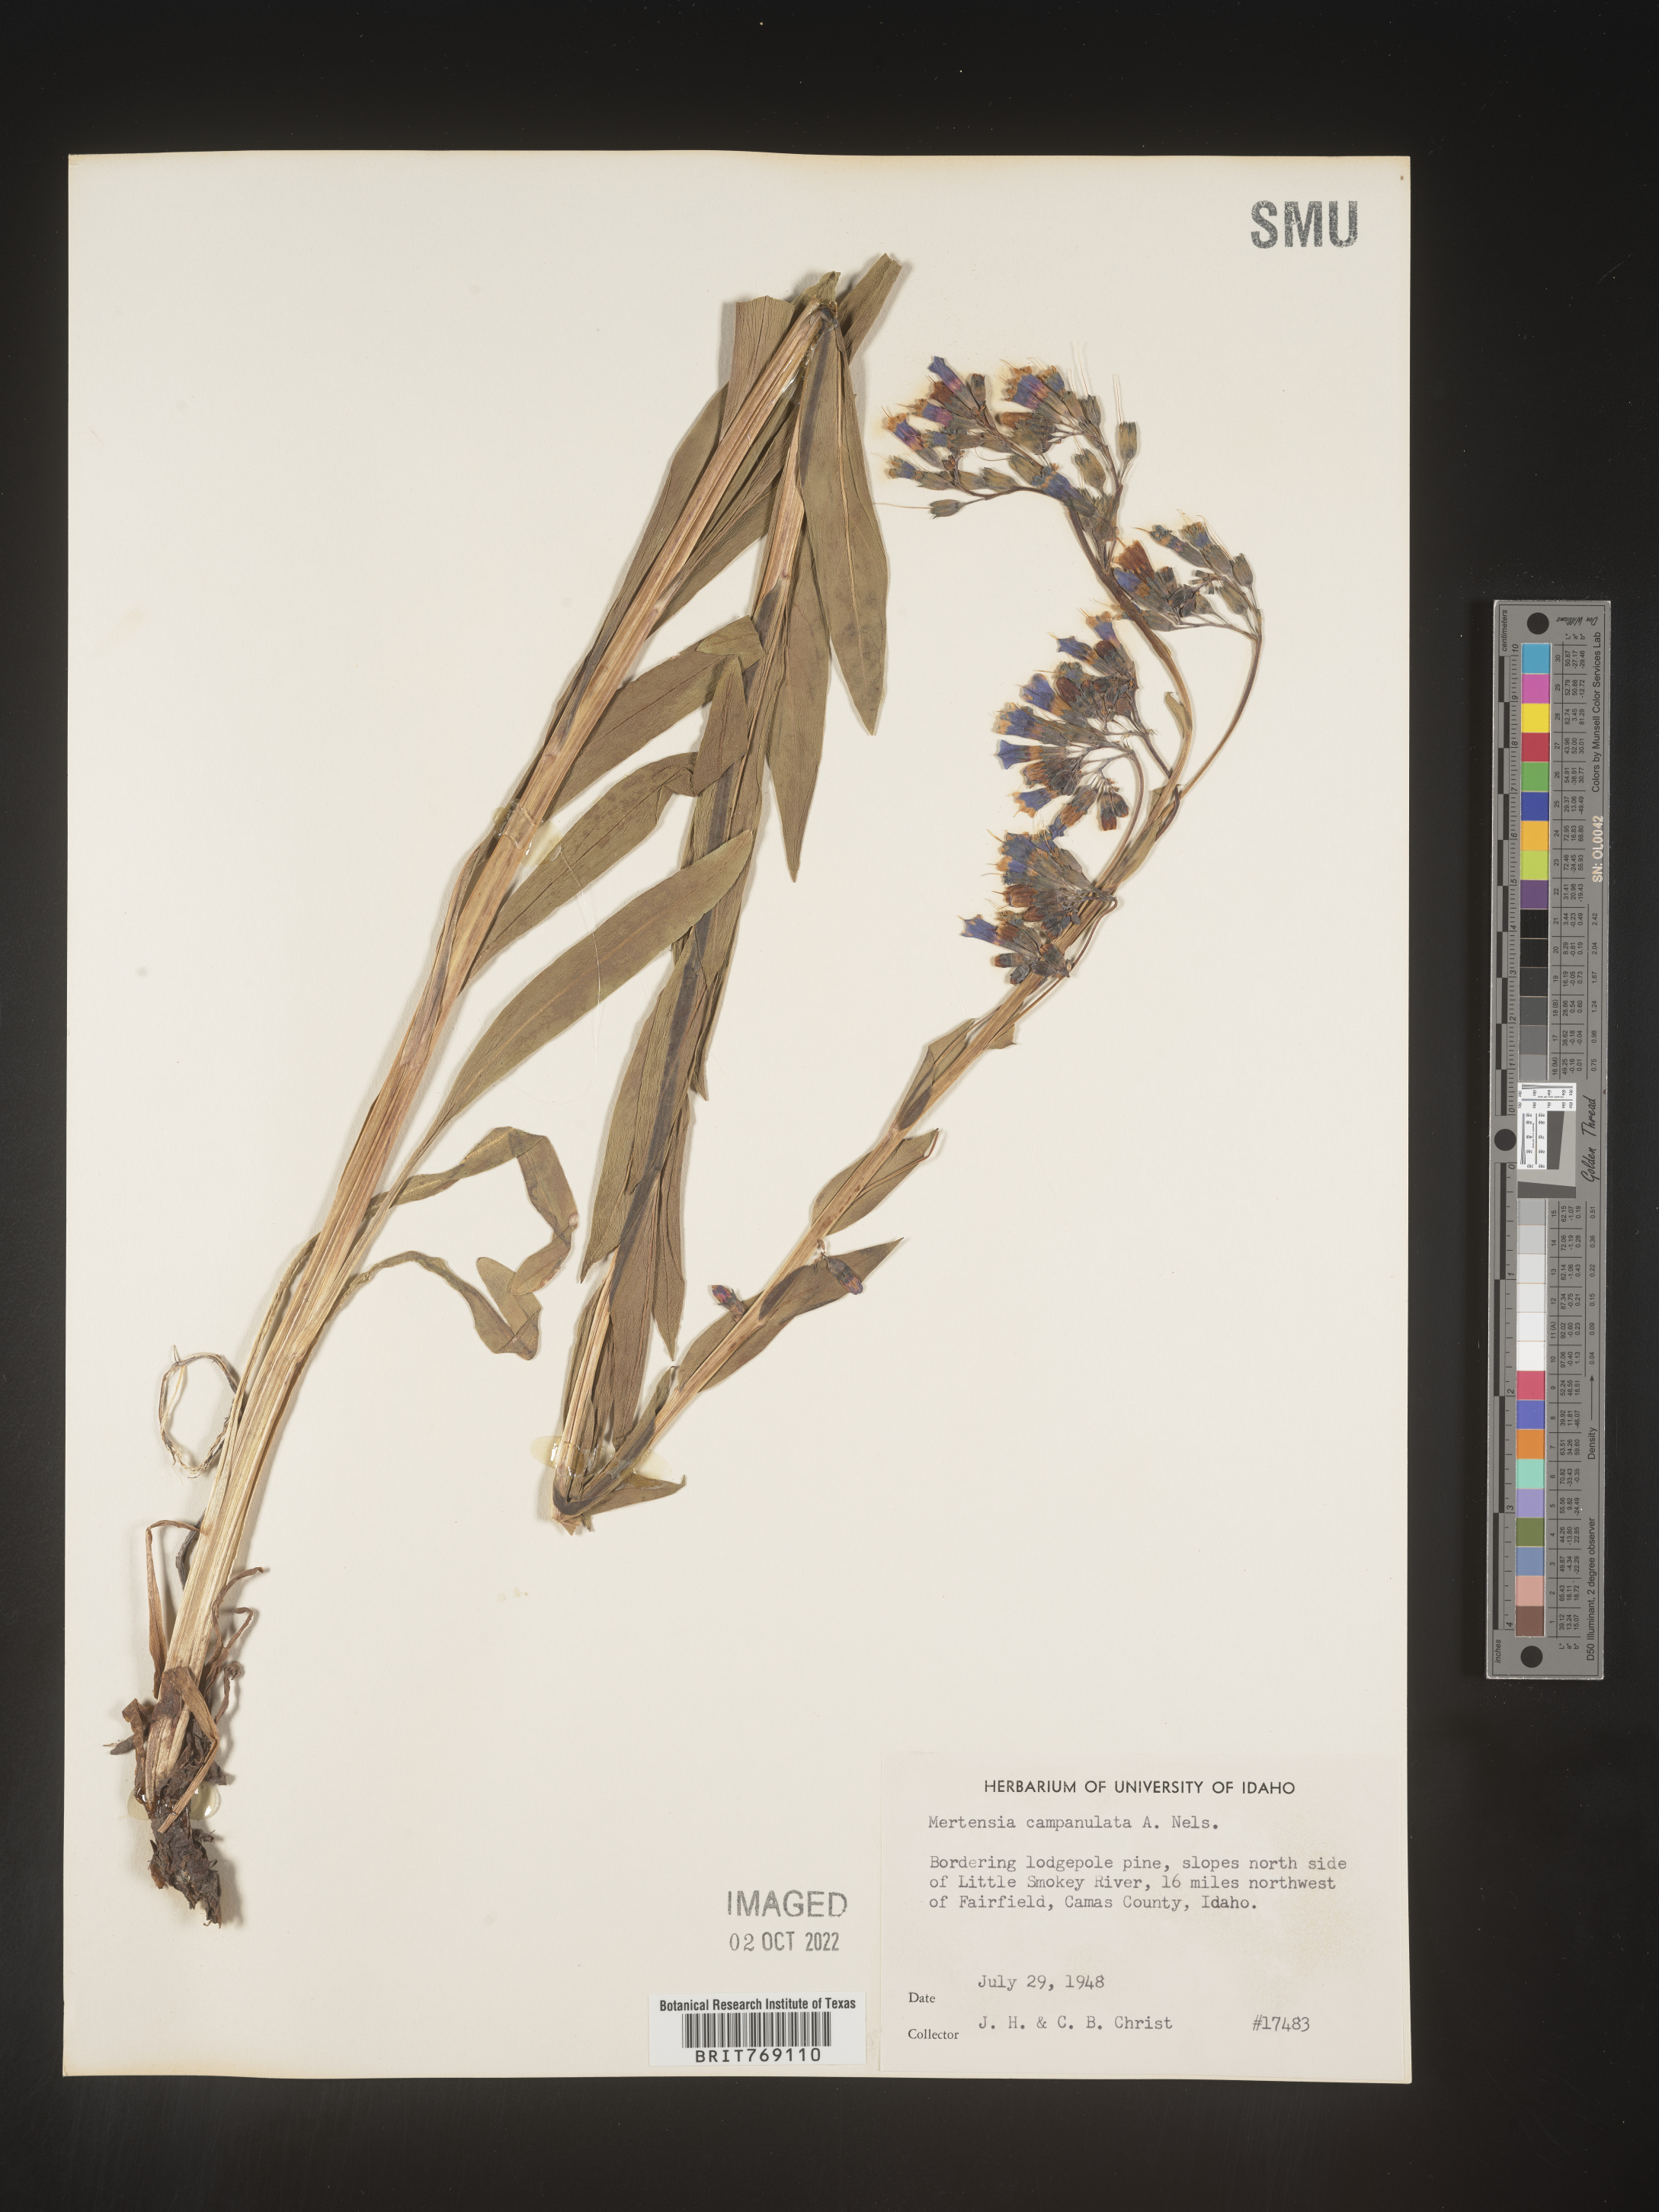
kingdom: Plantae
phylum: Tracheophyta
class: Magnoliopsida
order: Boraginales
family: Boraginaceae
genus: Mertensia
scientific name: Mertensia
